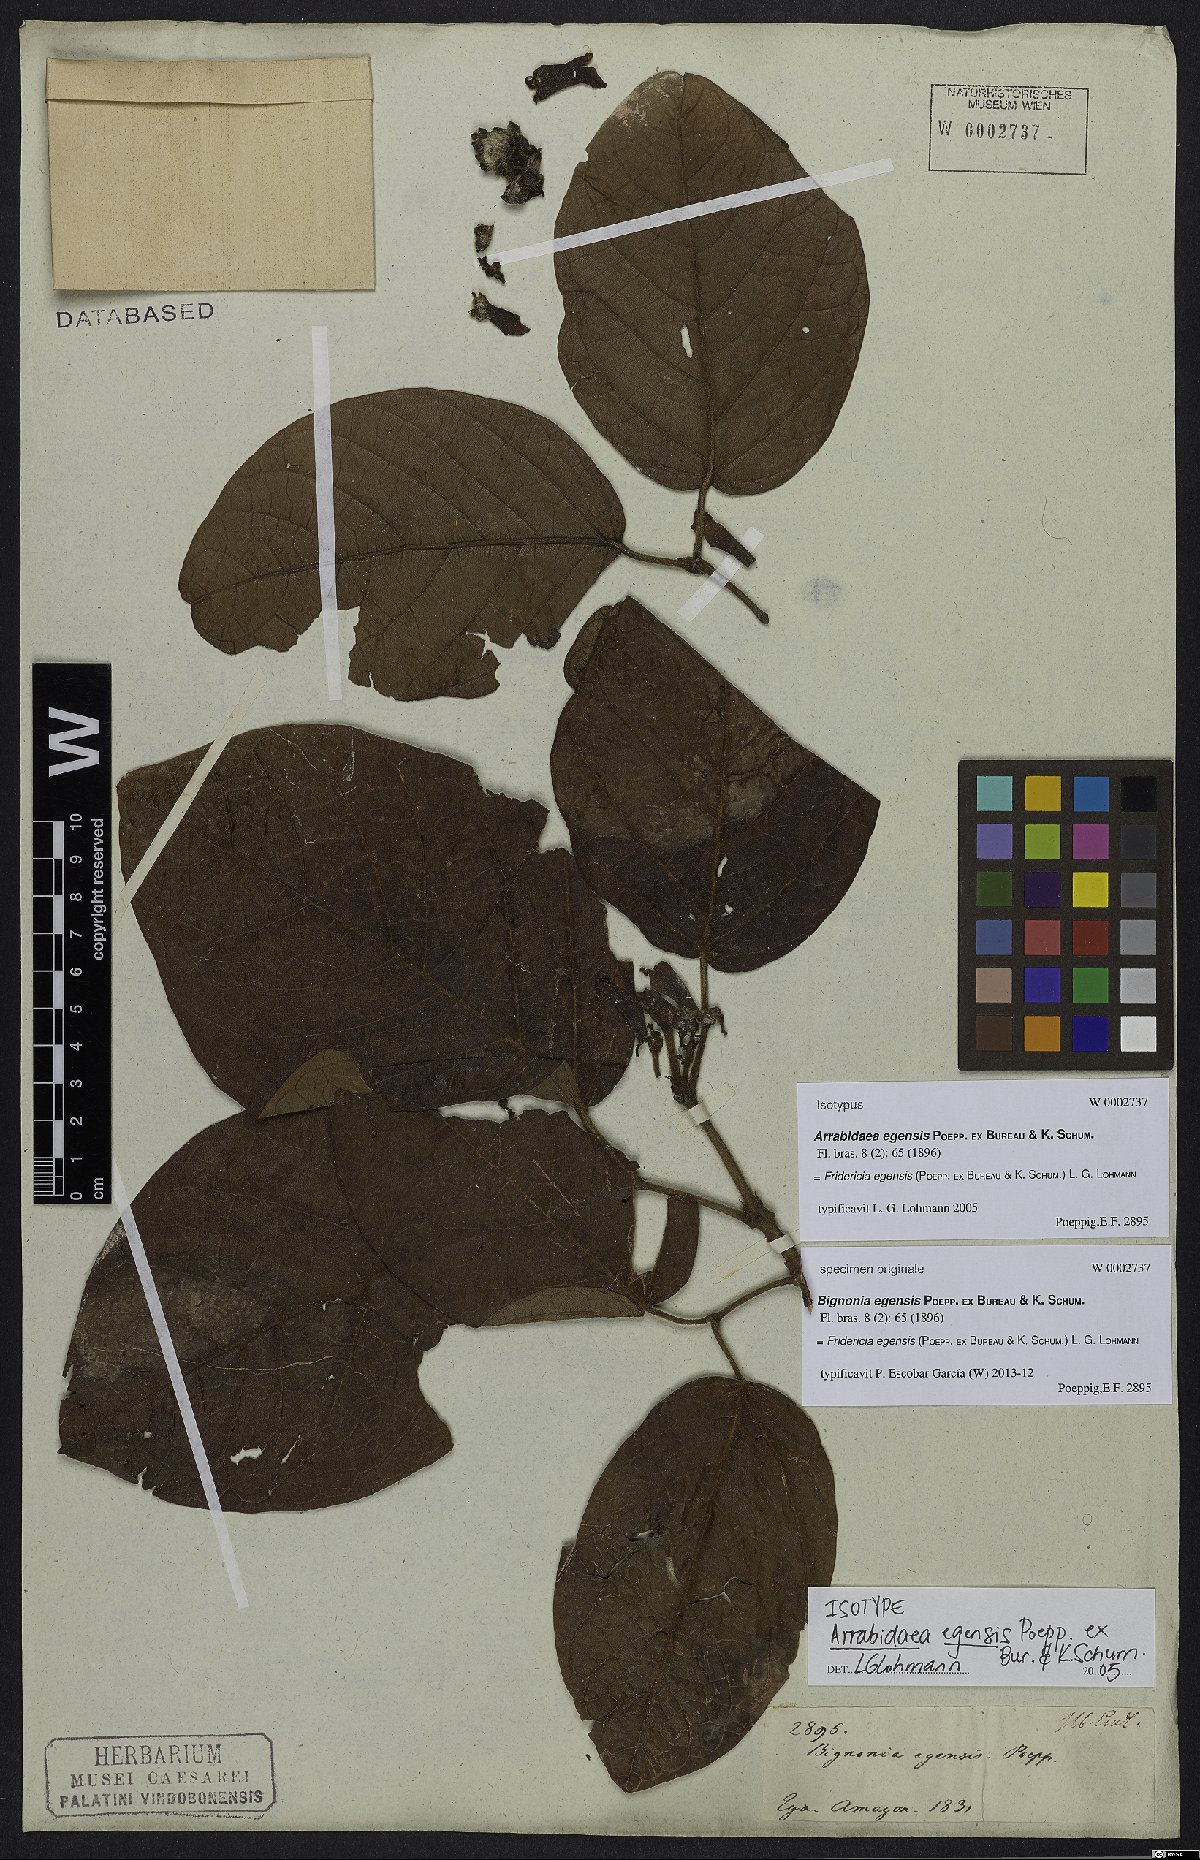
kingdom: Plantae
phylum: Tracheophyta
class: Magnoliopsida
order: Lamiales
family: Bignoniaceae
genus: Fridericia
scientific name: Fridericia egensis
